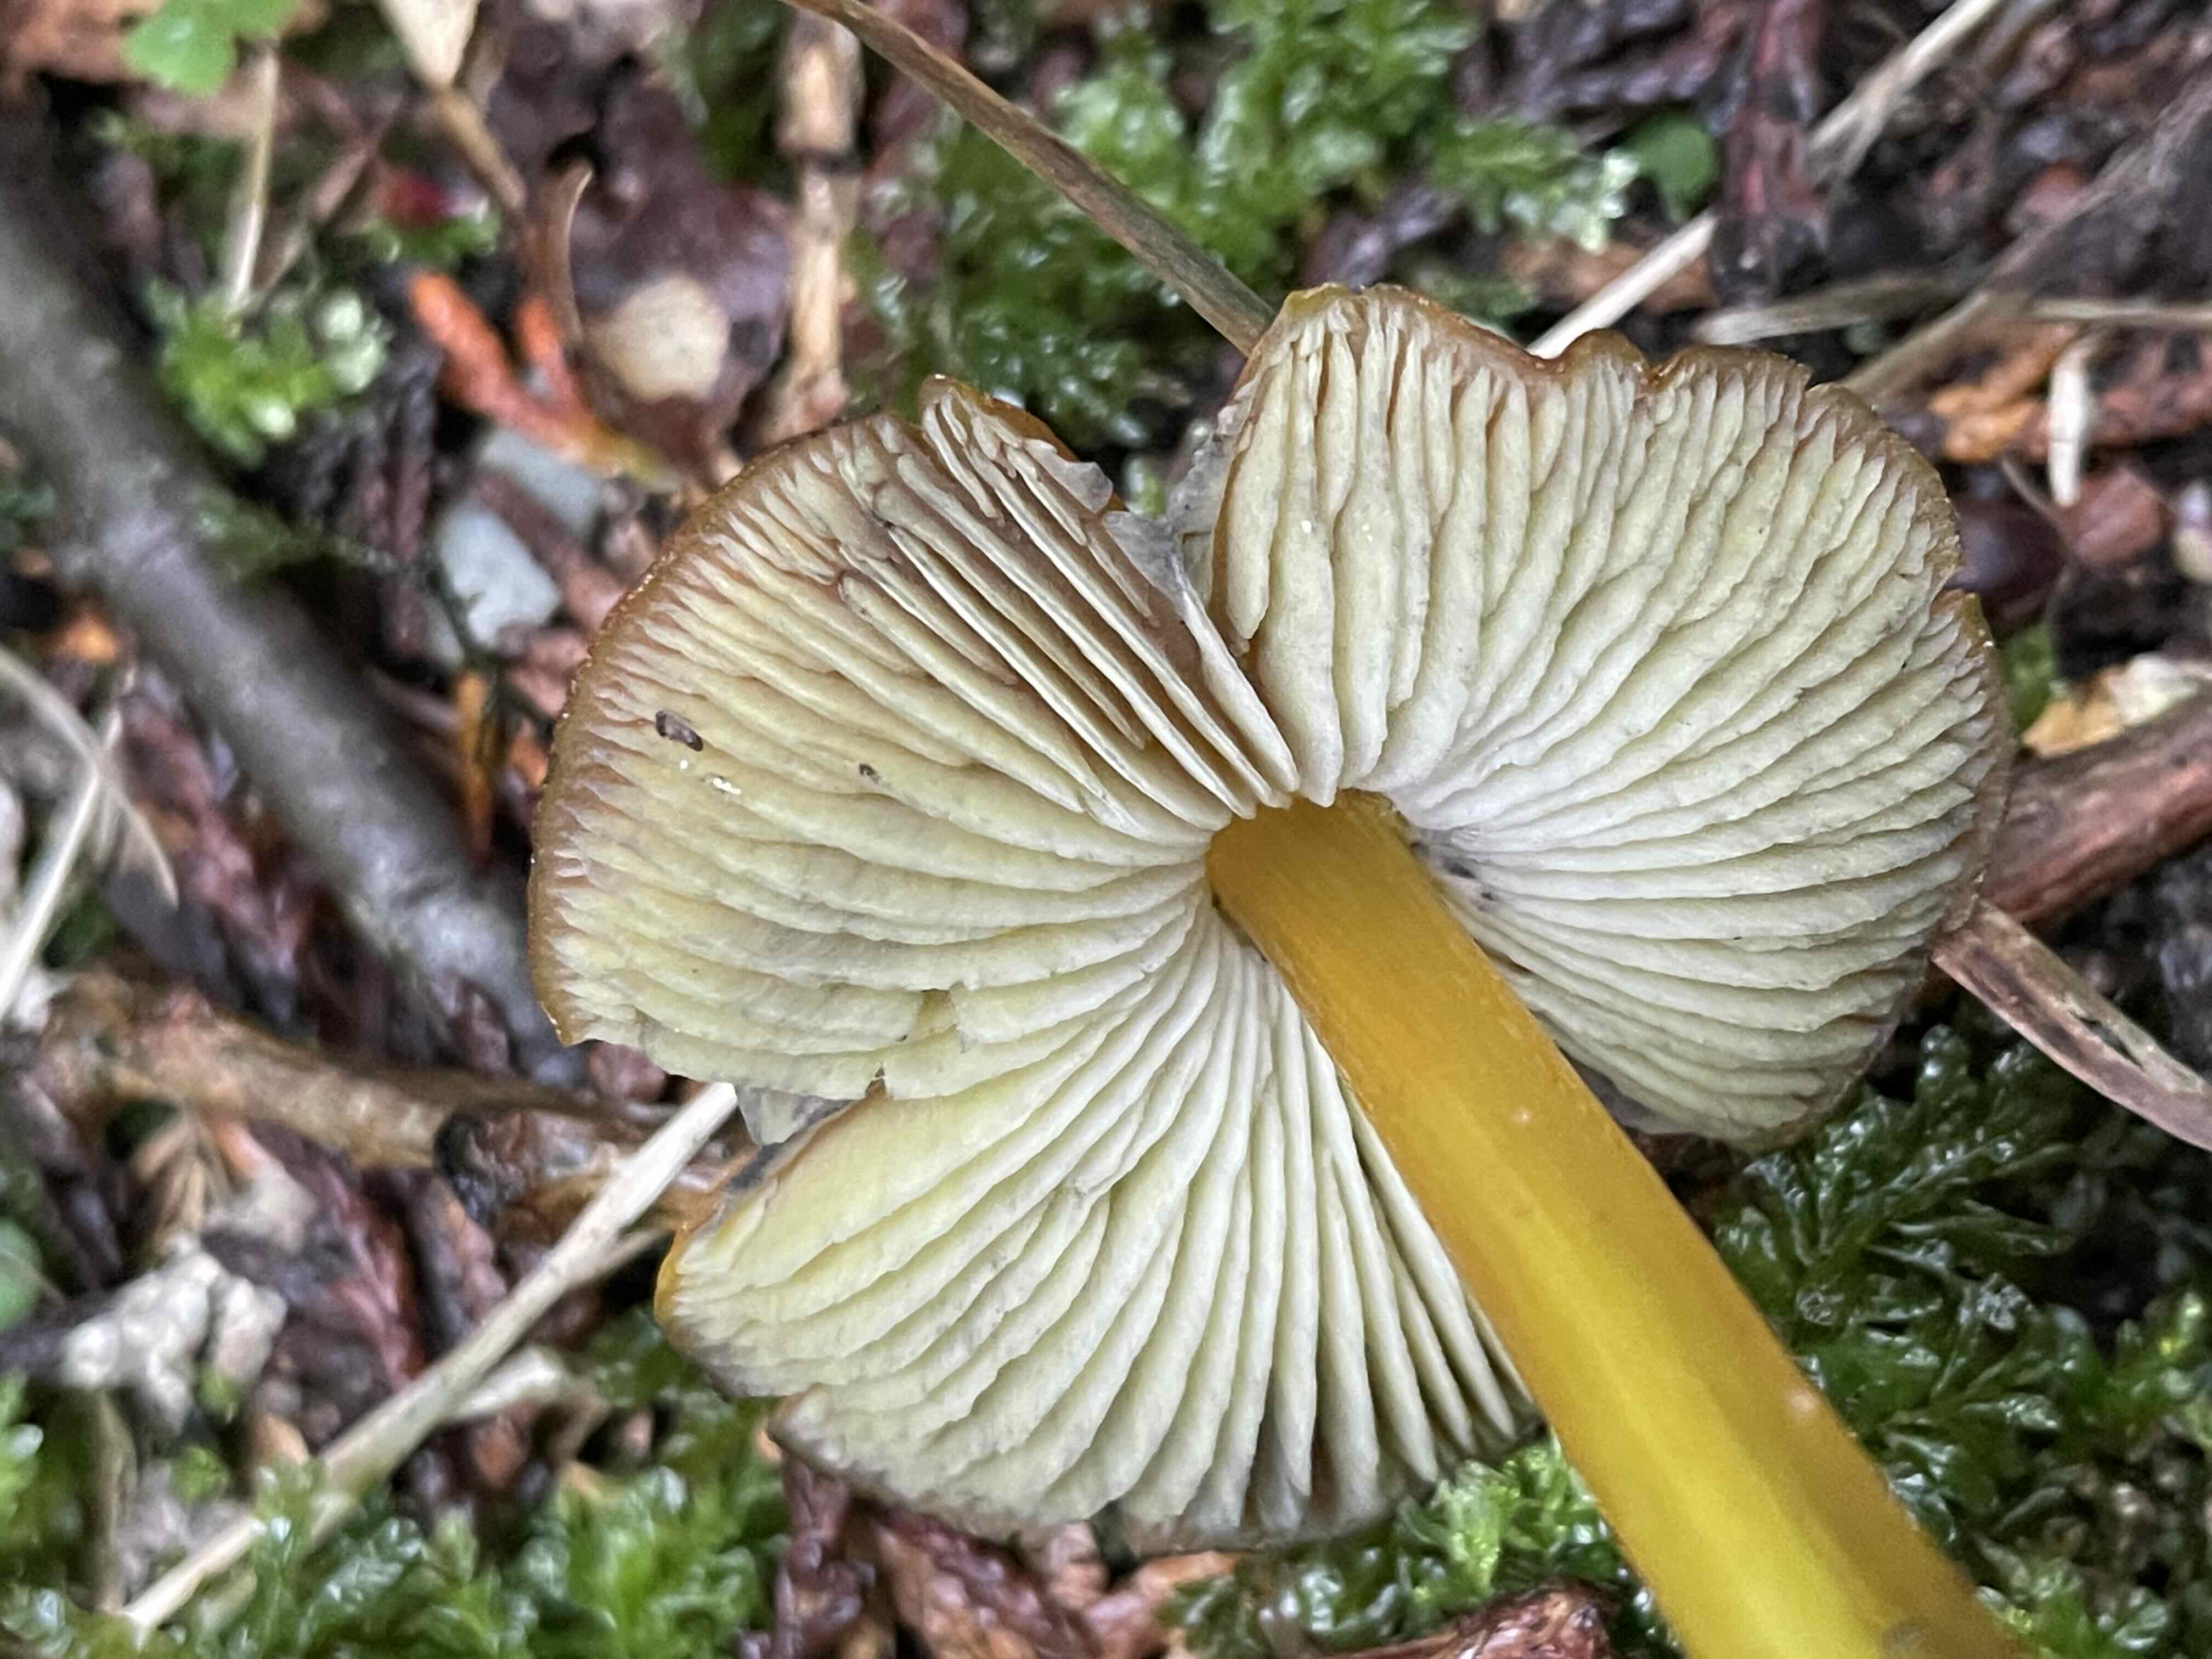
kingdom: Fungi
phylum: Basidiomycota
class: Agaricomycetes
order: Agaricales
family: Hygrophoraceae
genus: Hygrocybe
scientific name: Hygrocybe conica
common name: kegle-vokshat
